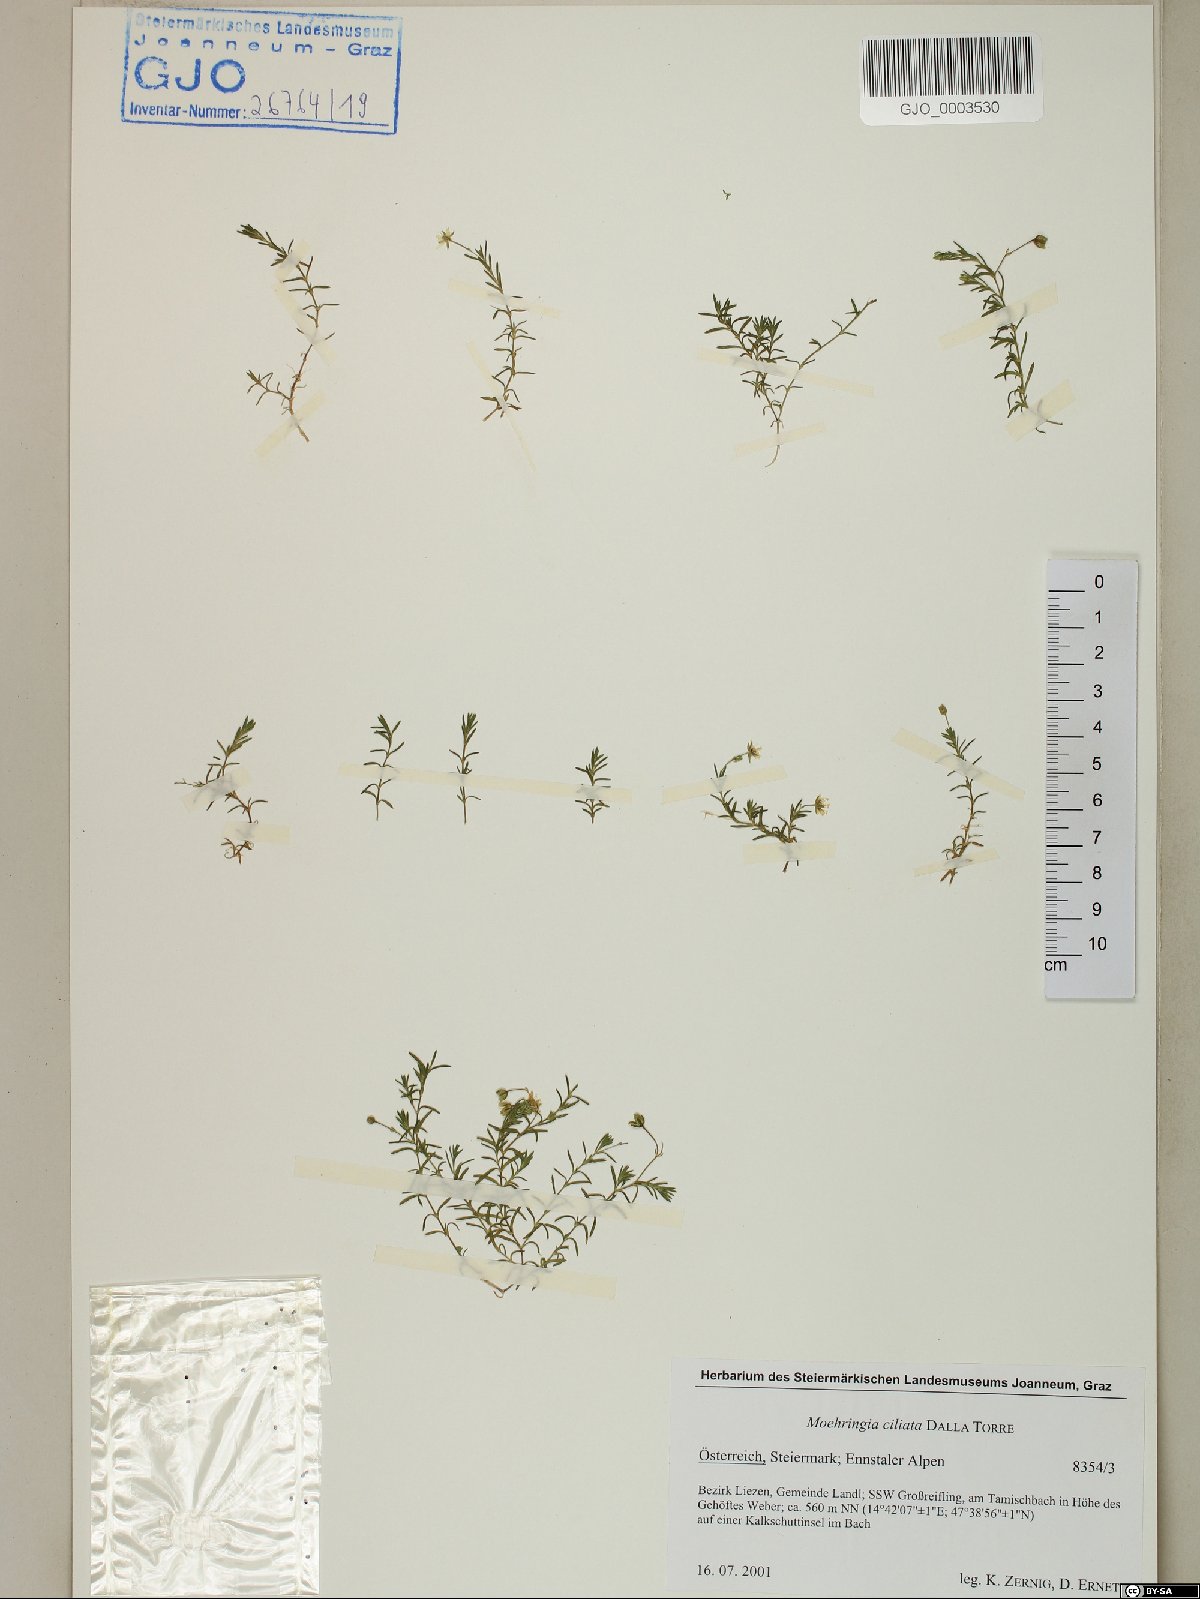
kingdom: Plantae
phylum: Tracheophyta
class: Magnoliopsida
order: Caryophyllales
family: Caryophyllaceae
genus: Moehringia
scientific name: Moehringia ciliata
